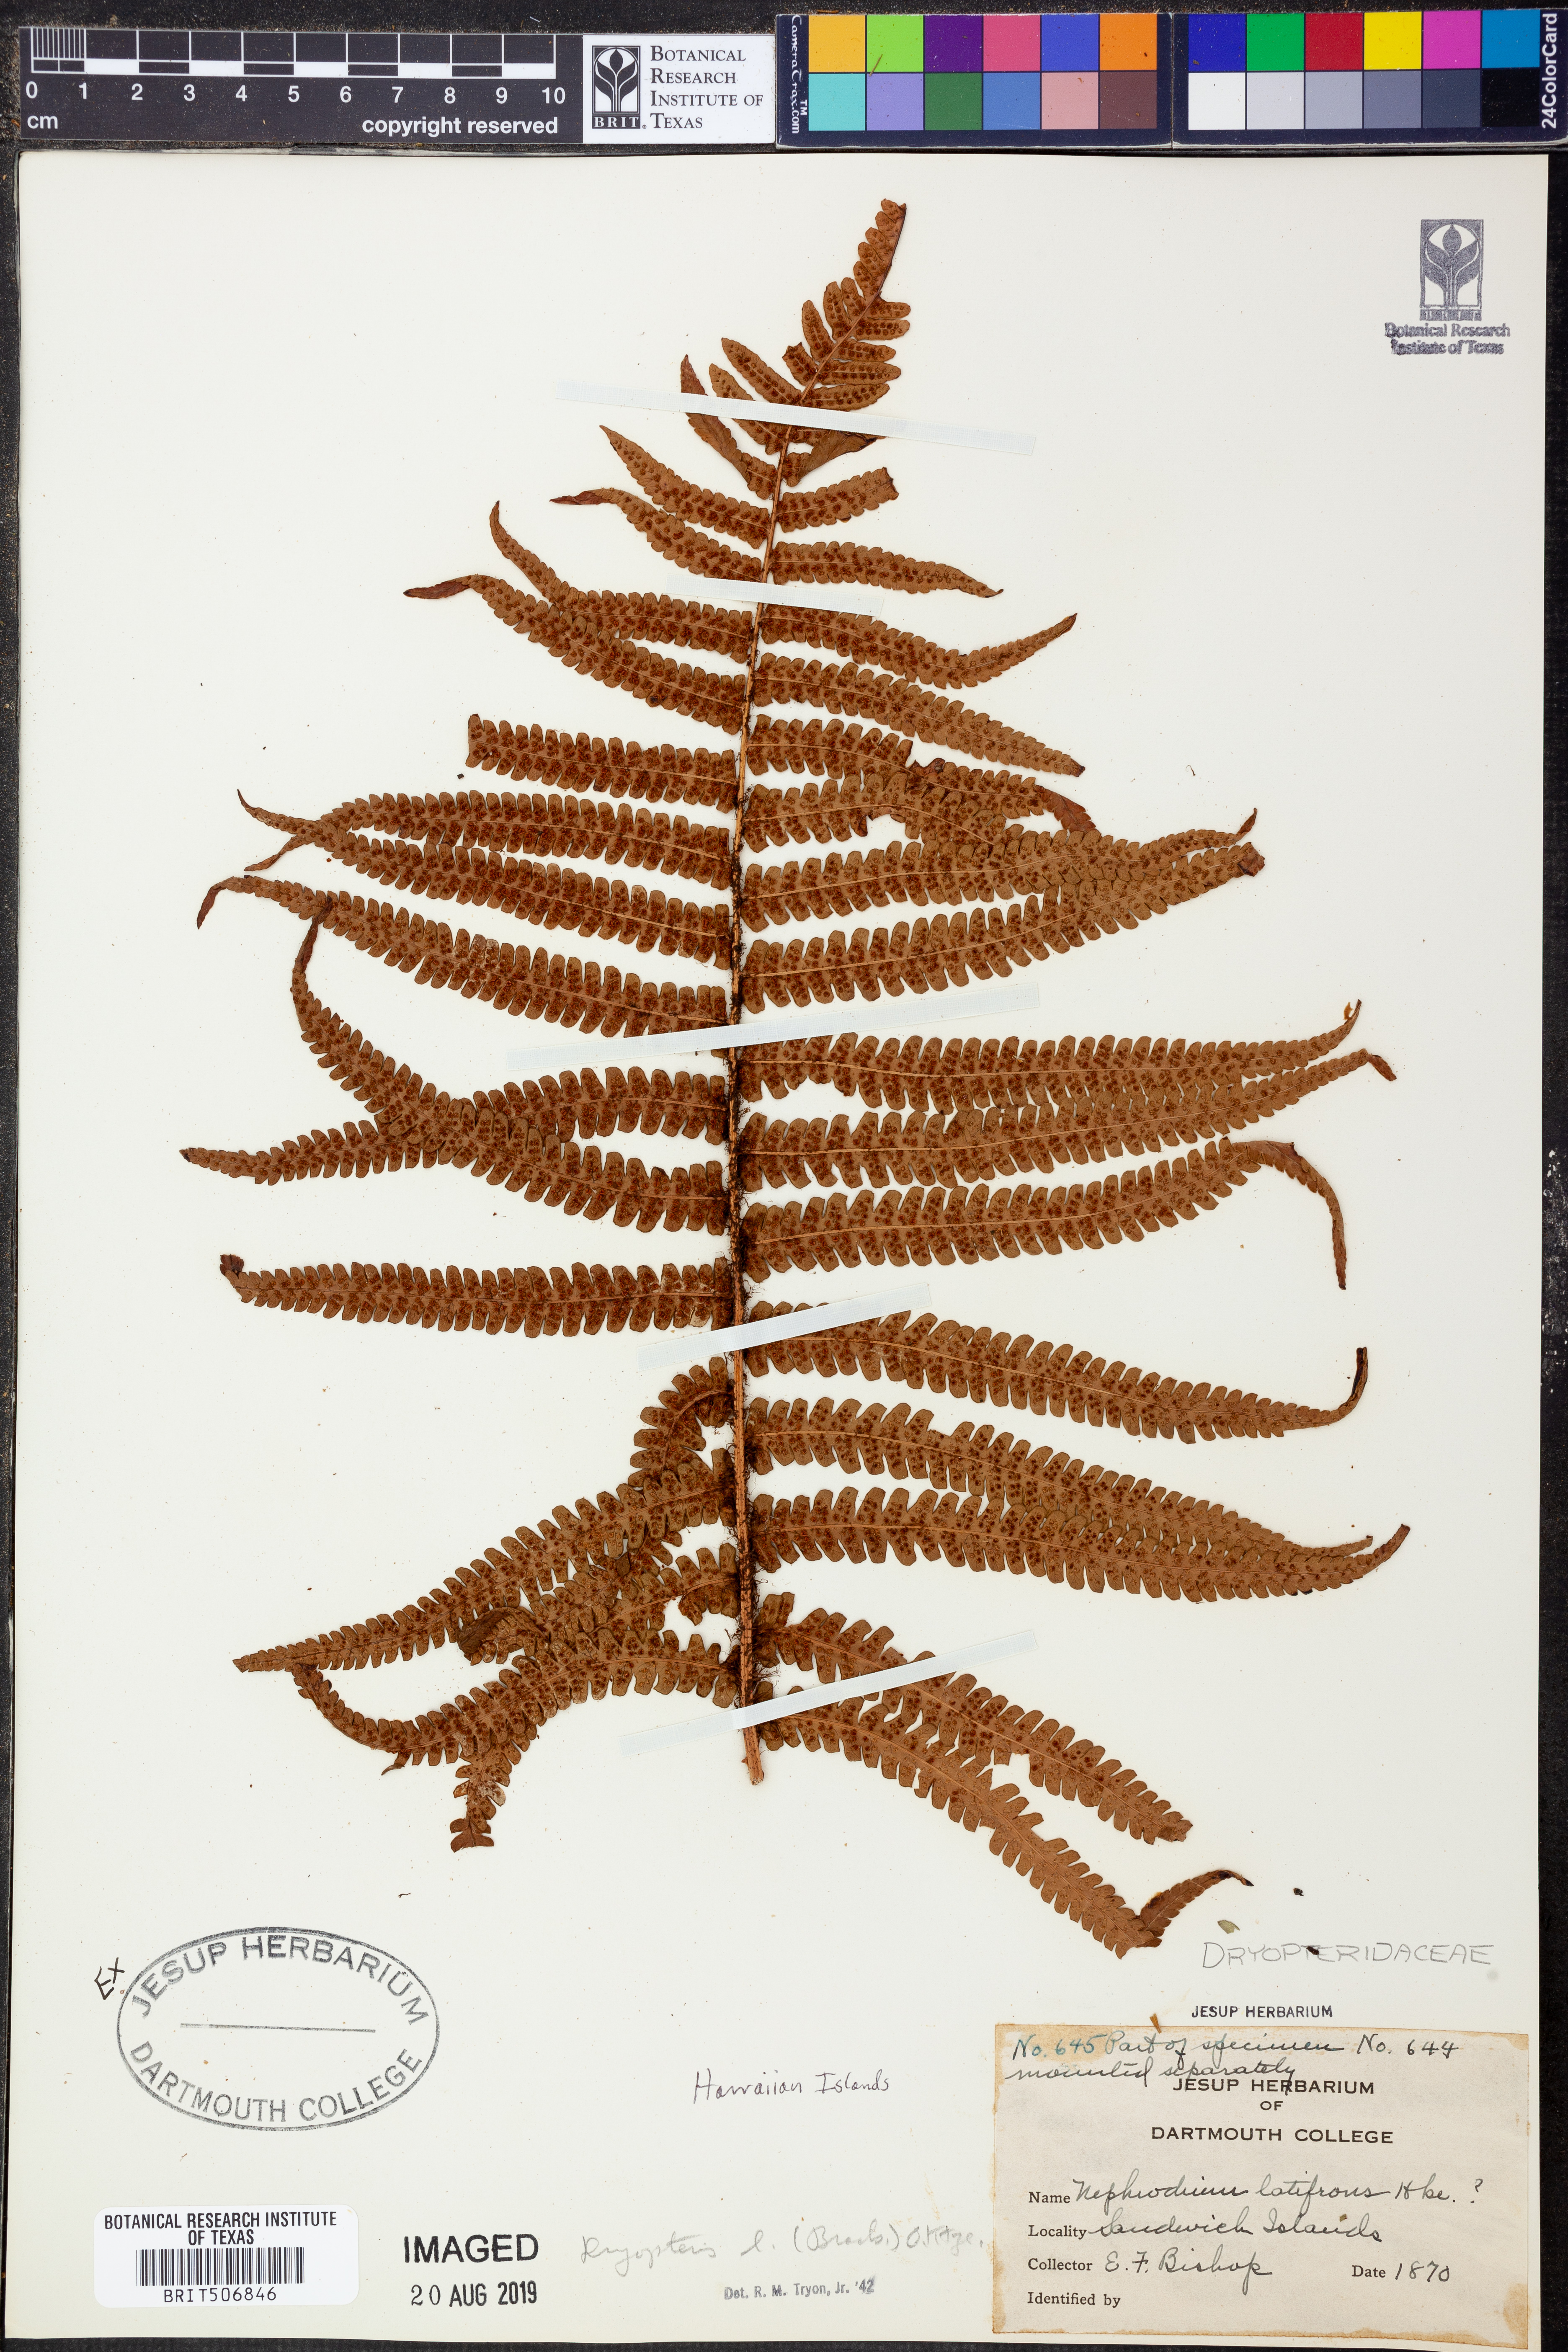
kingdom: Plantae
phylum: Tracheophyta
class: Polypodiopsida
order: Polypodiales
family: Dryopteridaceae
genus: Ctenitis
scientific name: Ctenitis latifrons
